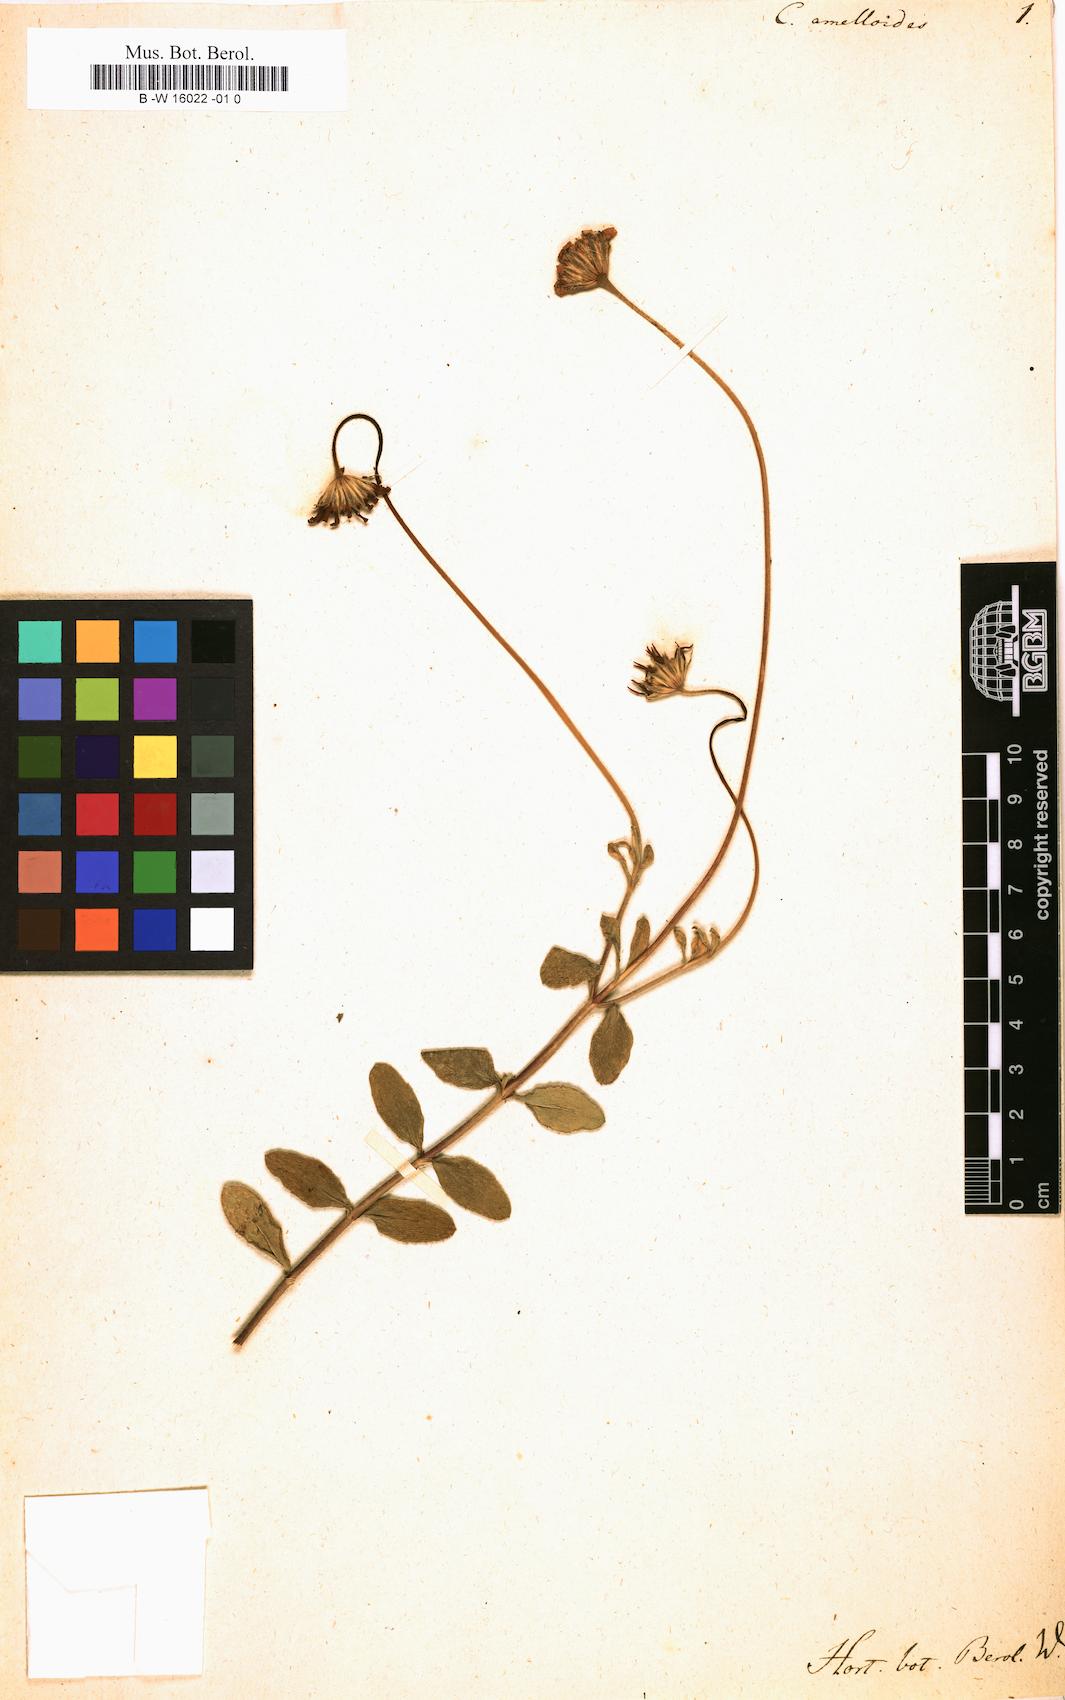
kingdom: Plantae
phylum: Tracheophyta
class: Magnoliopsida
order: Asterales
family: Asteraceae
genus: Felicia
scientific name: Felicia amelloides
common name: Blue marguerite
